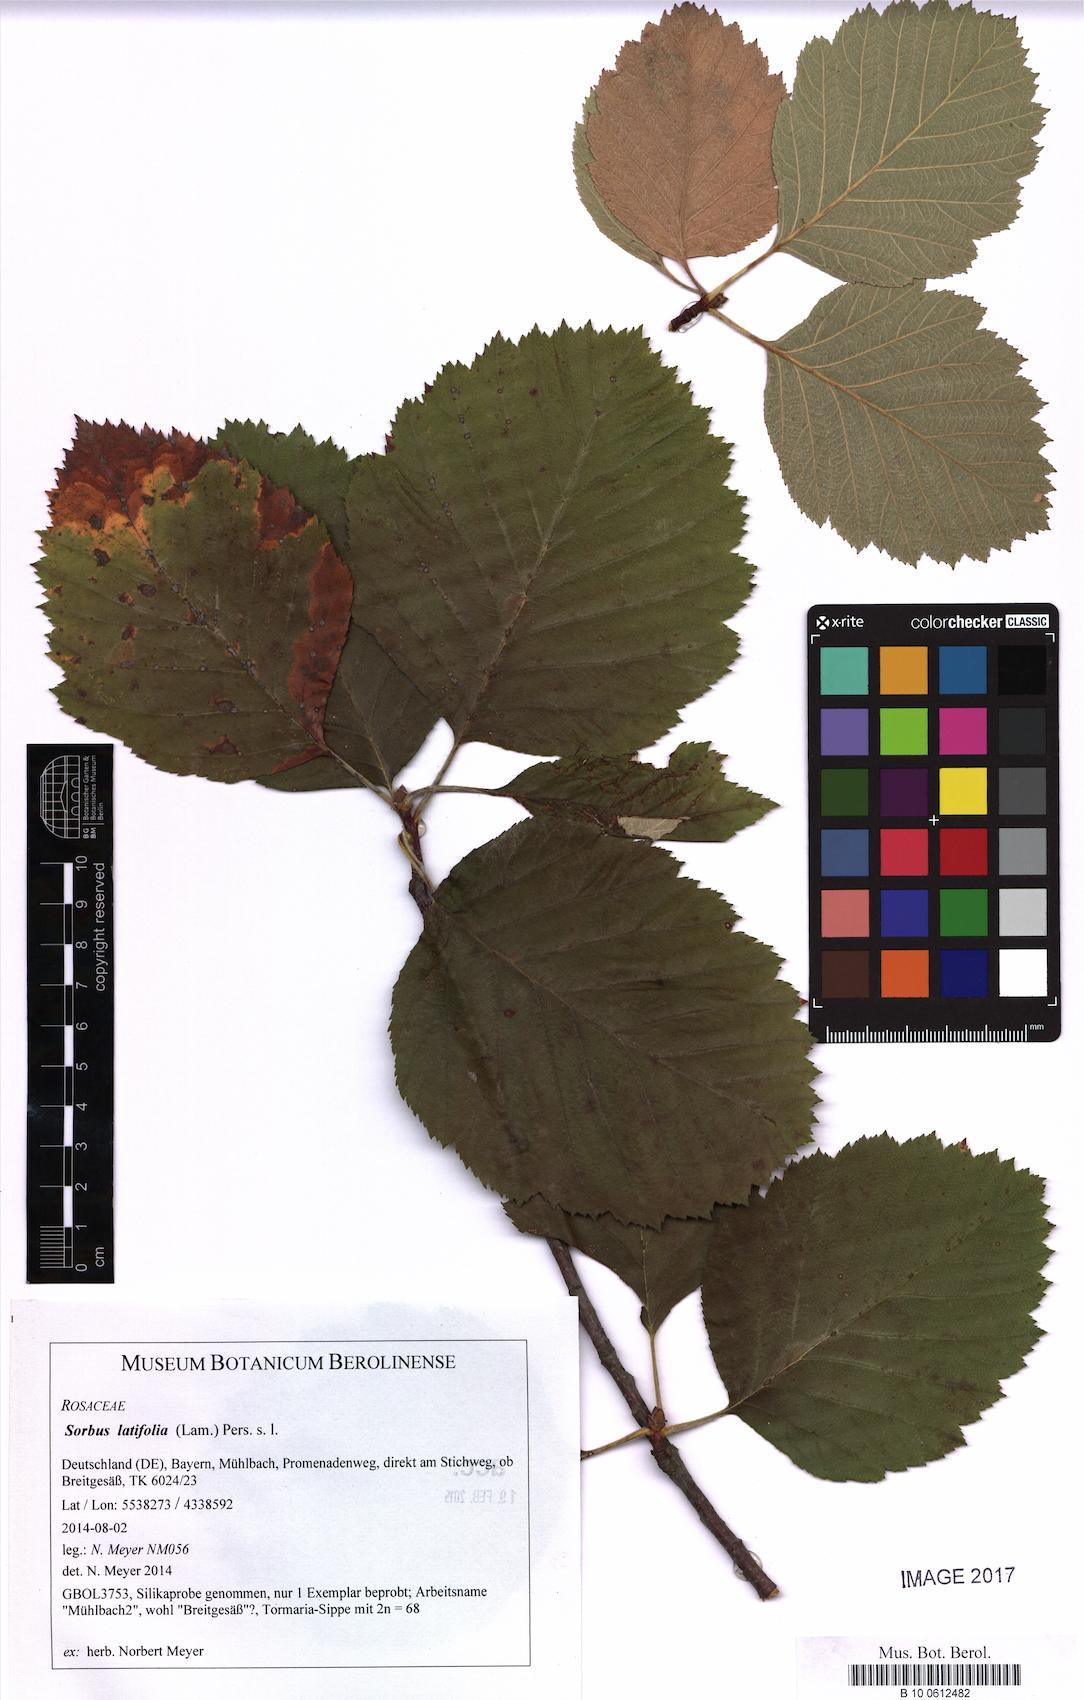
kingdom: Plantae
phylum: Tracheophyta
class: Magnoliopsida
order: Rosales
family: Rosaceae
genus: Karpatiosorbus
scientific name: Karpatiosorbus latifolia
